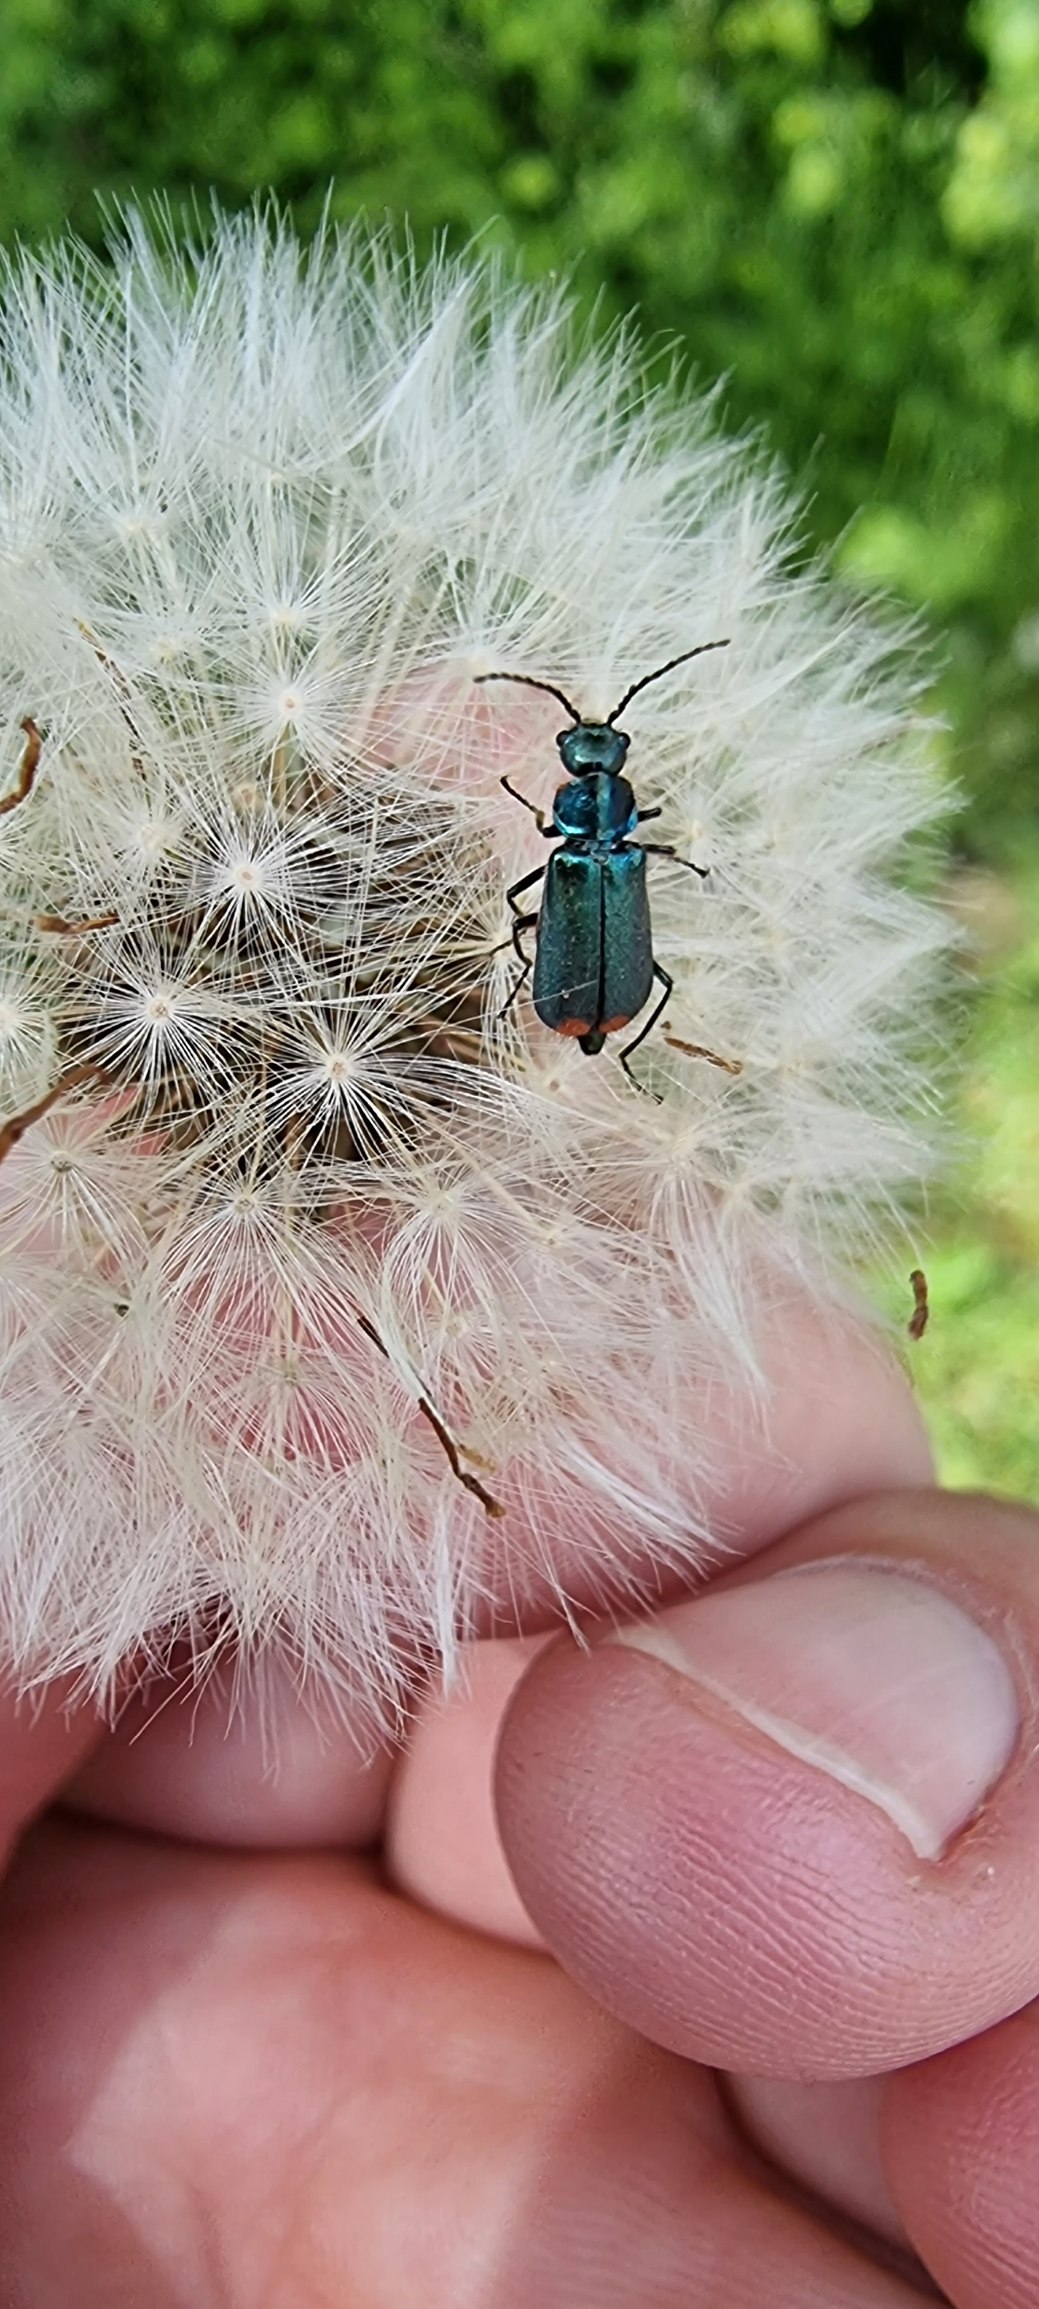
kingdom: Animalia
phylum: Arthropoda
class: Insecta
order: Coleoptera
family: Melyridae
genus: Malachius
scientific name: Malachius bipustulatus
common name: Skovmalakitbille
